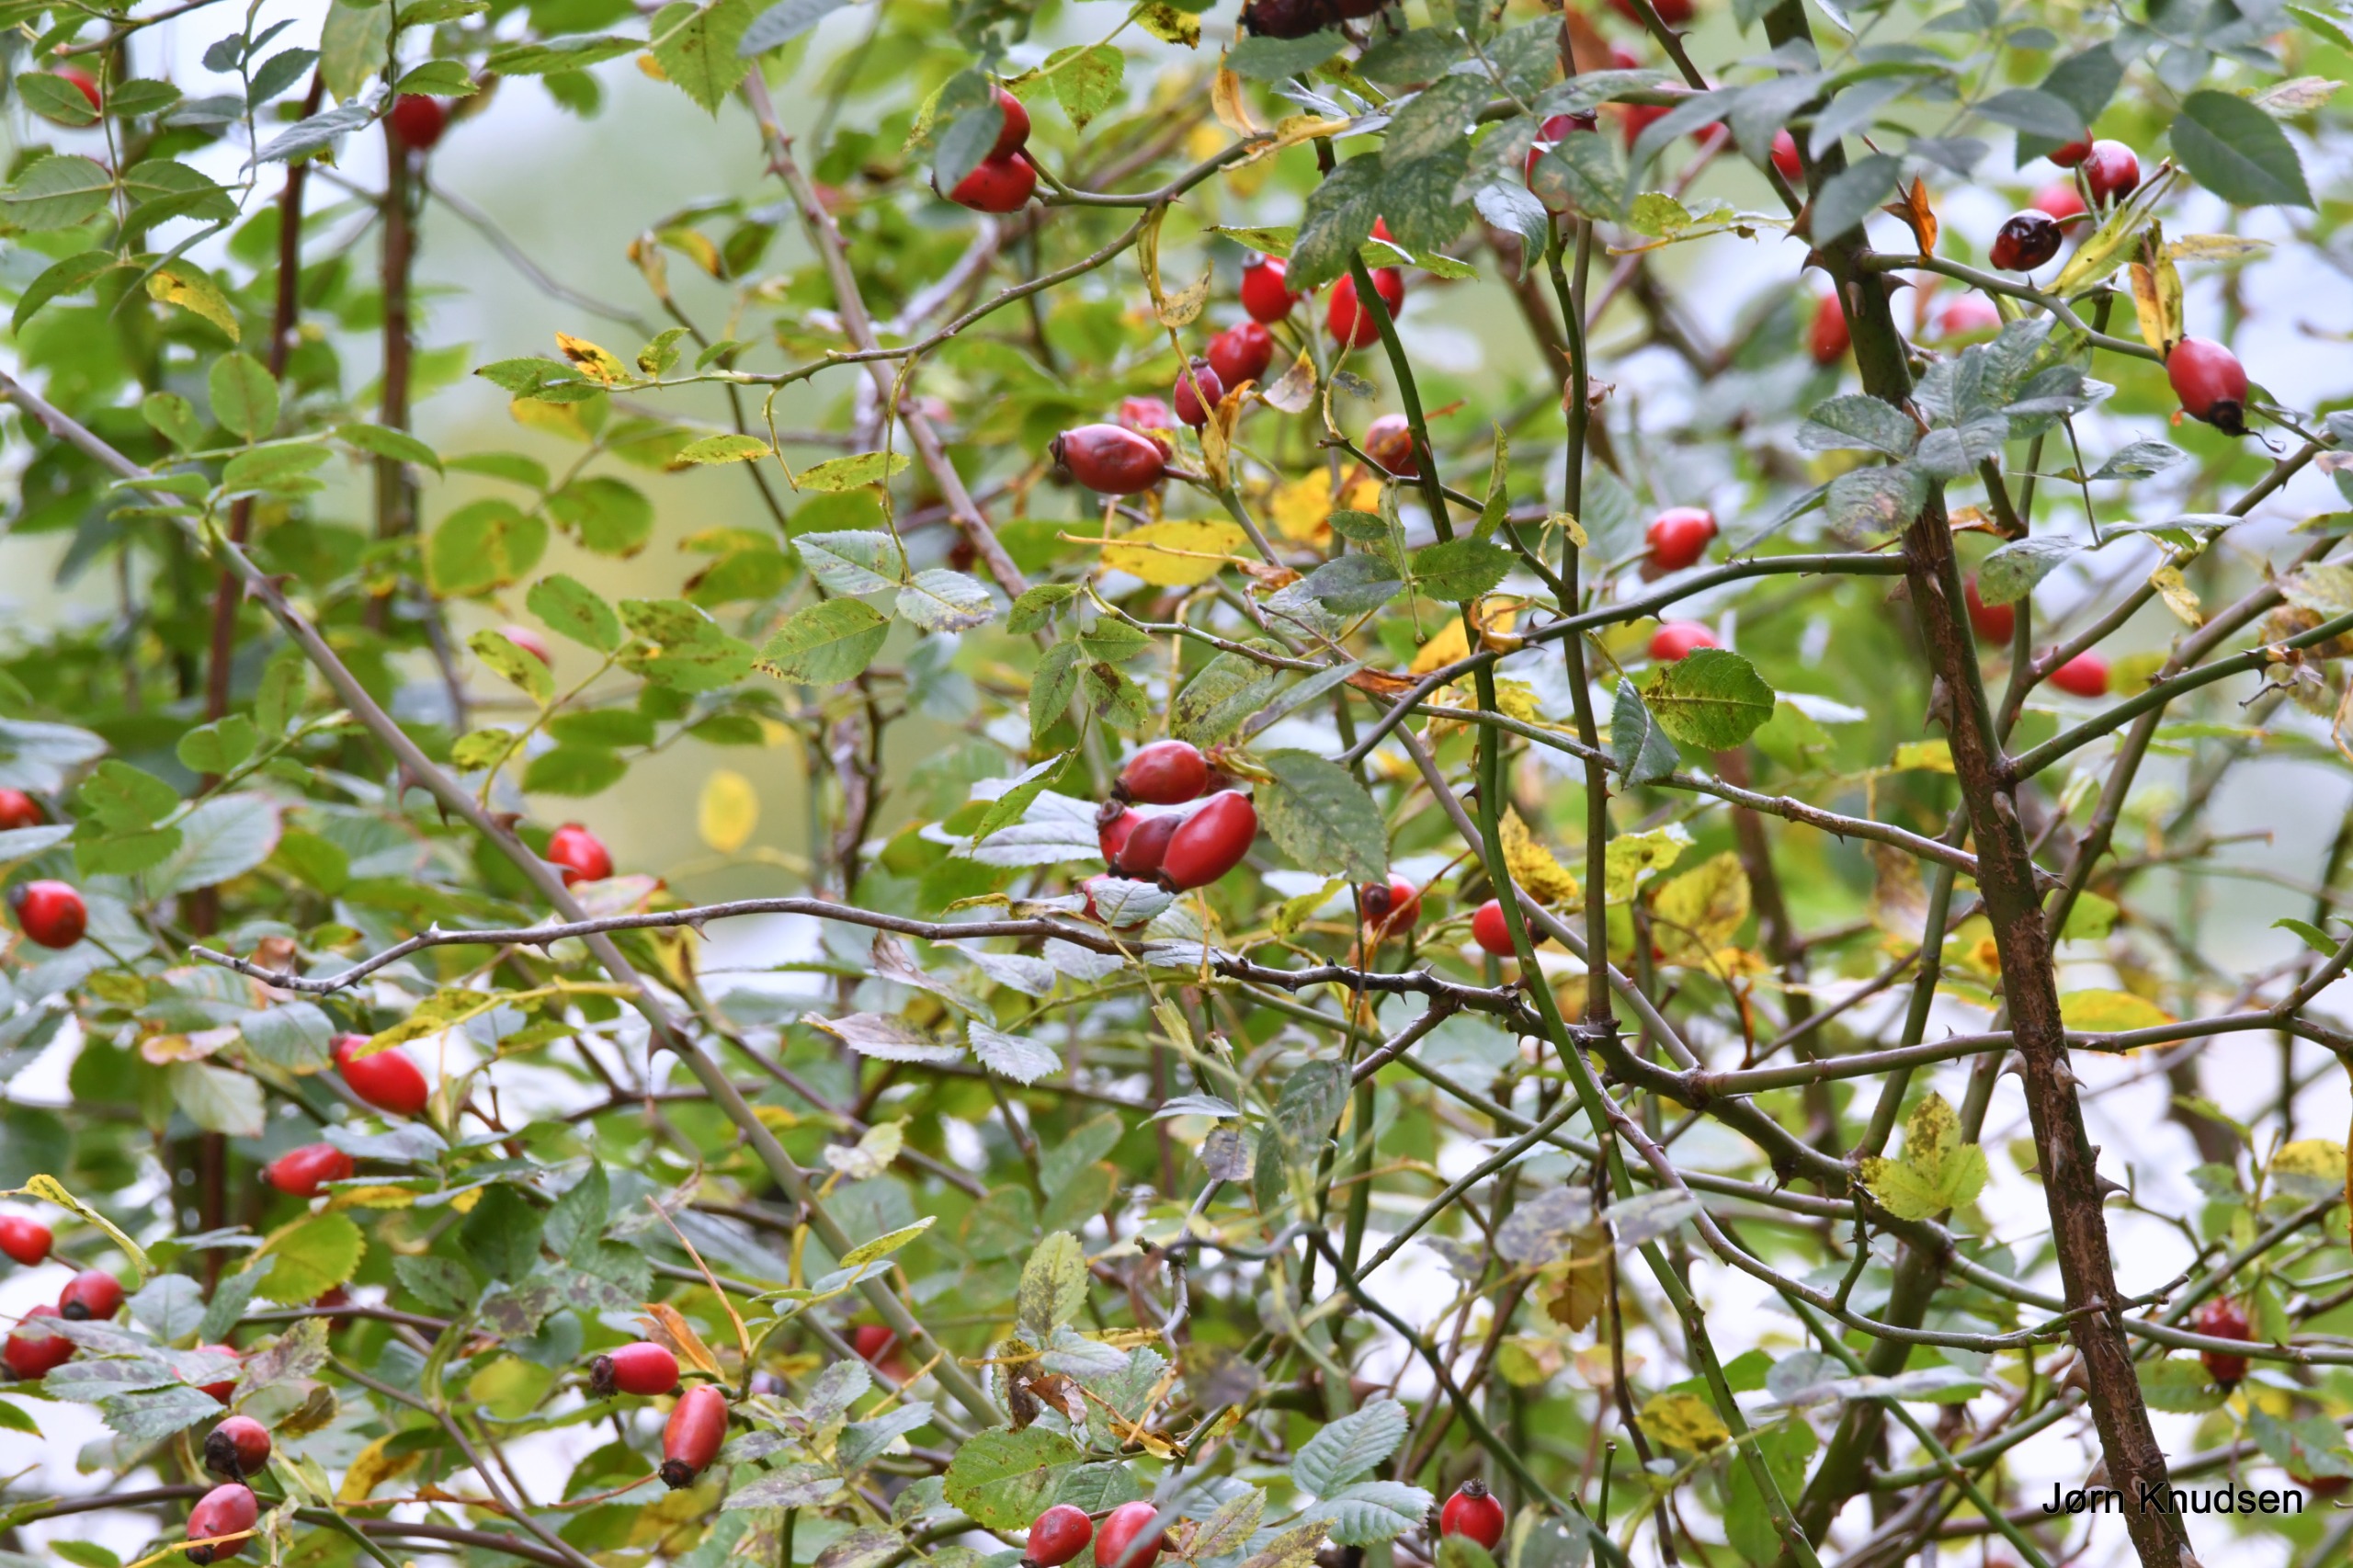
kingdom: Plantae
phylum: Tracheophyta
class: Magnoliopsida
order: Rosales
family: Rosaceae
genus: Rosa
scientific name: Rosa canina
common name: Glat hunde-rose
